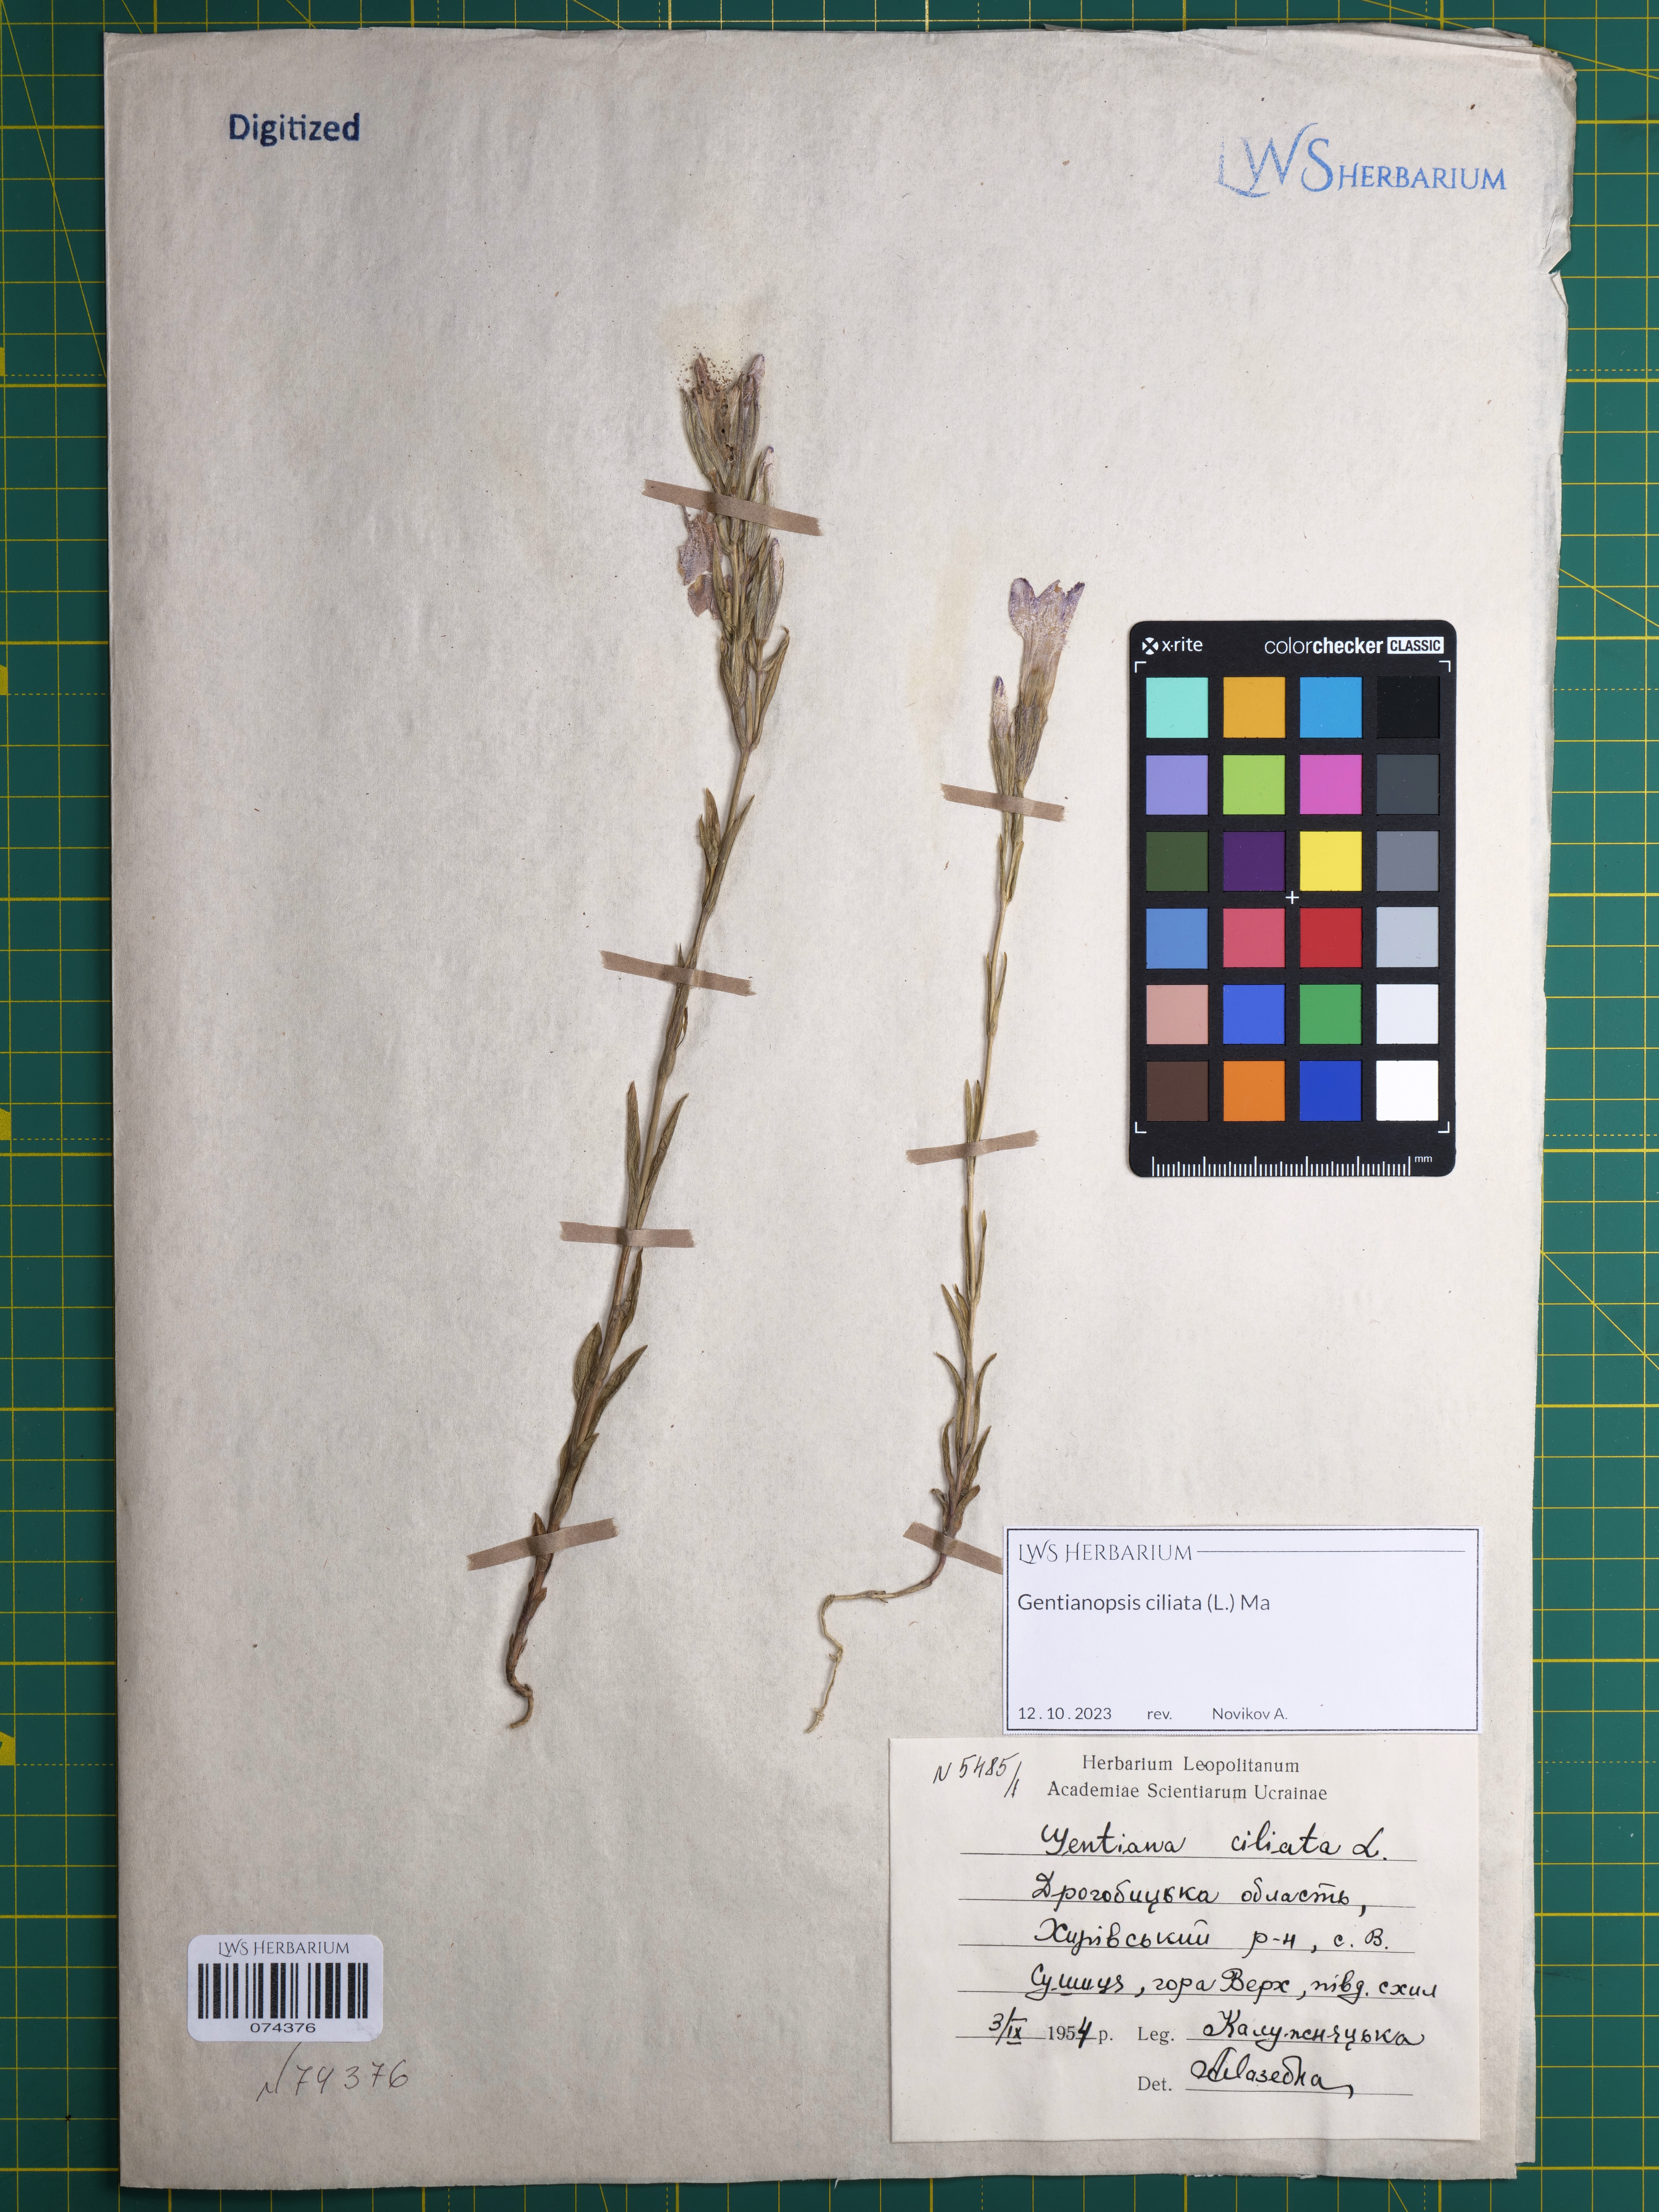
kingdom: Plantae
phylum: Tracheophyta
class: Magnoliopsida
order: Gentianales
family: Gentianaceae
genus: Gentianopsis
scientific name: Gentianopsis ciliata
